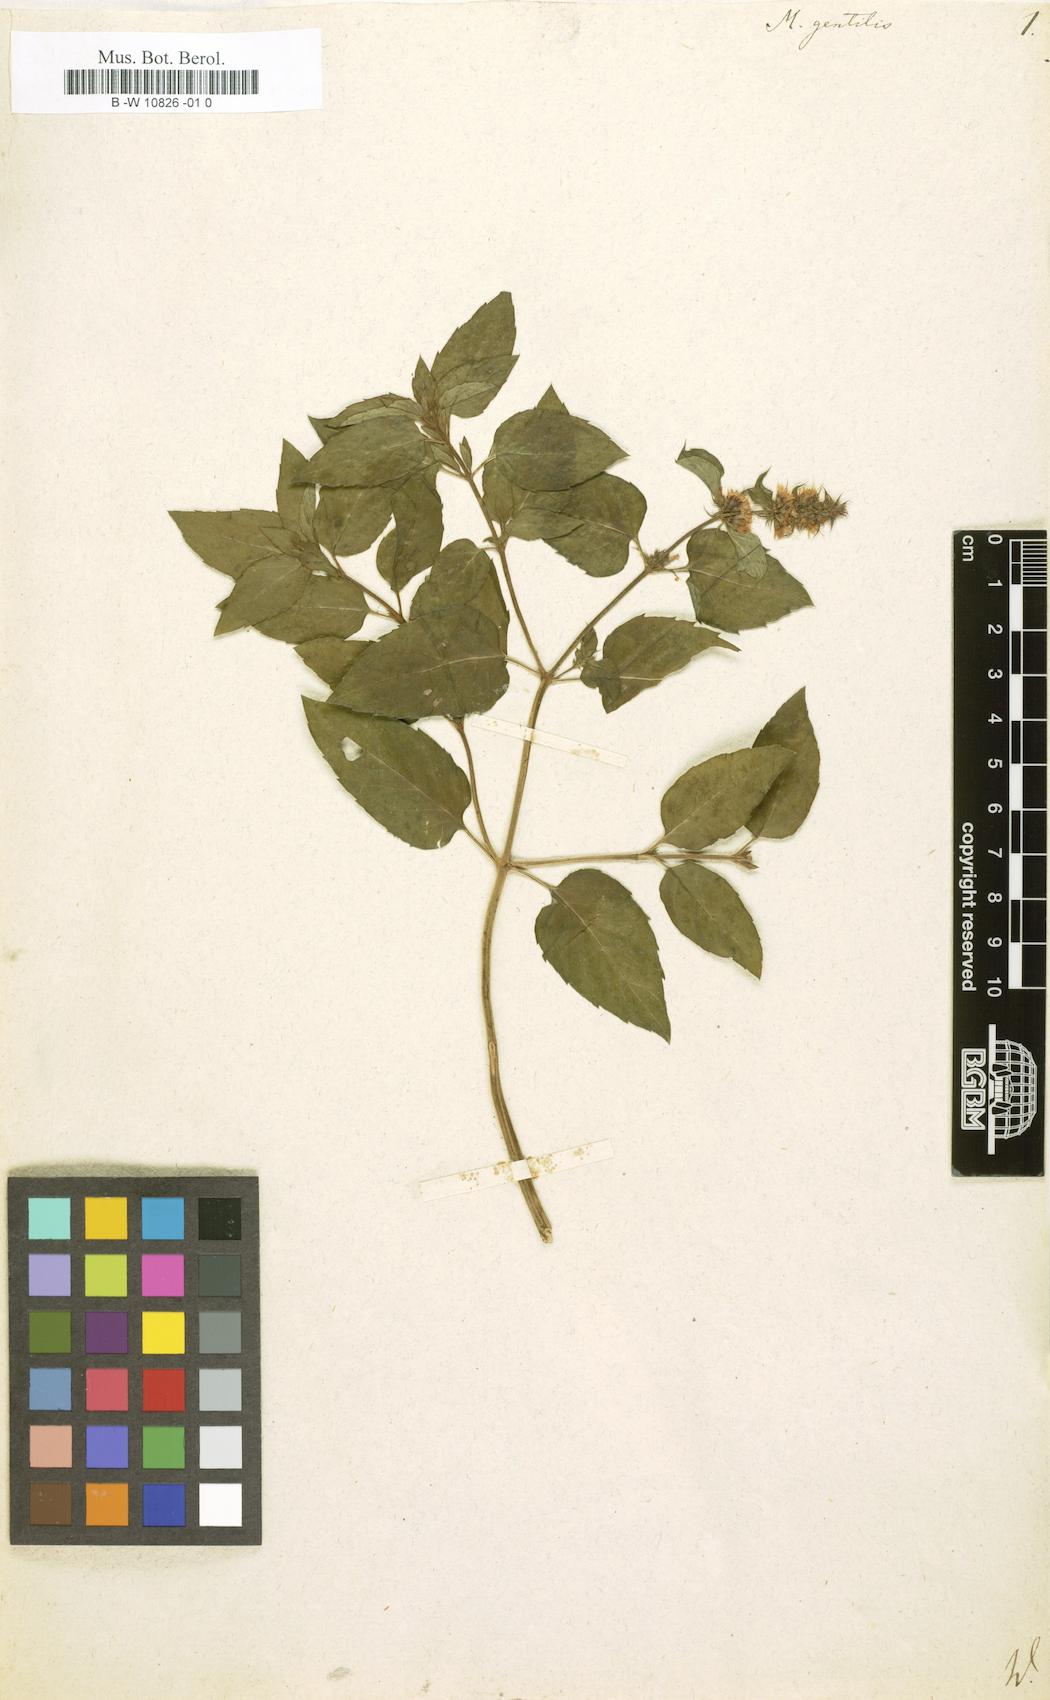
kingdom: Plantae
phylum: Tracheophyta
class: Magnoliopsida
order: Lamiales
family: Lamiaceae
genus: Mentha
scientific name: Mentha gentilis
